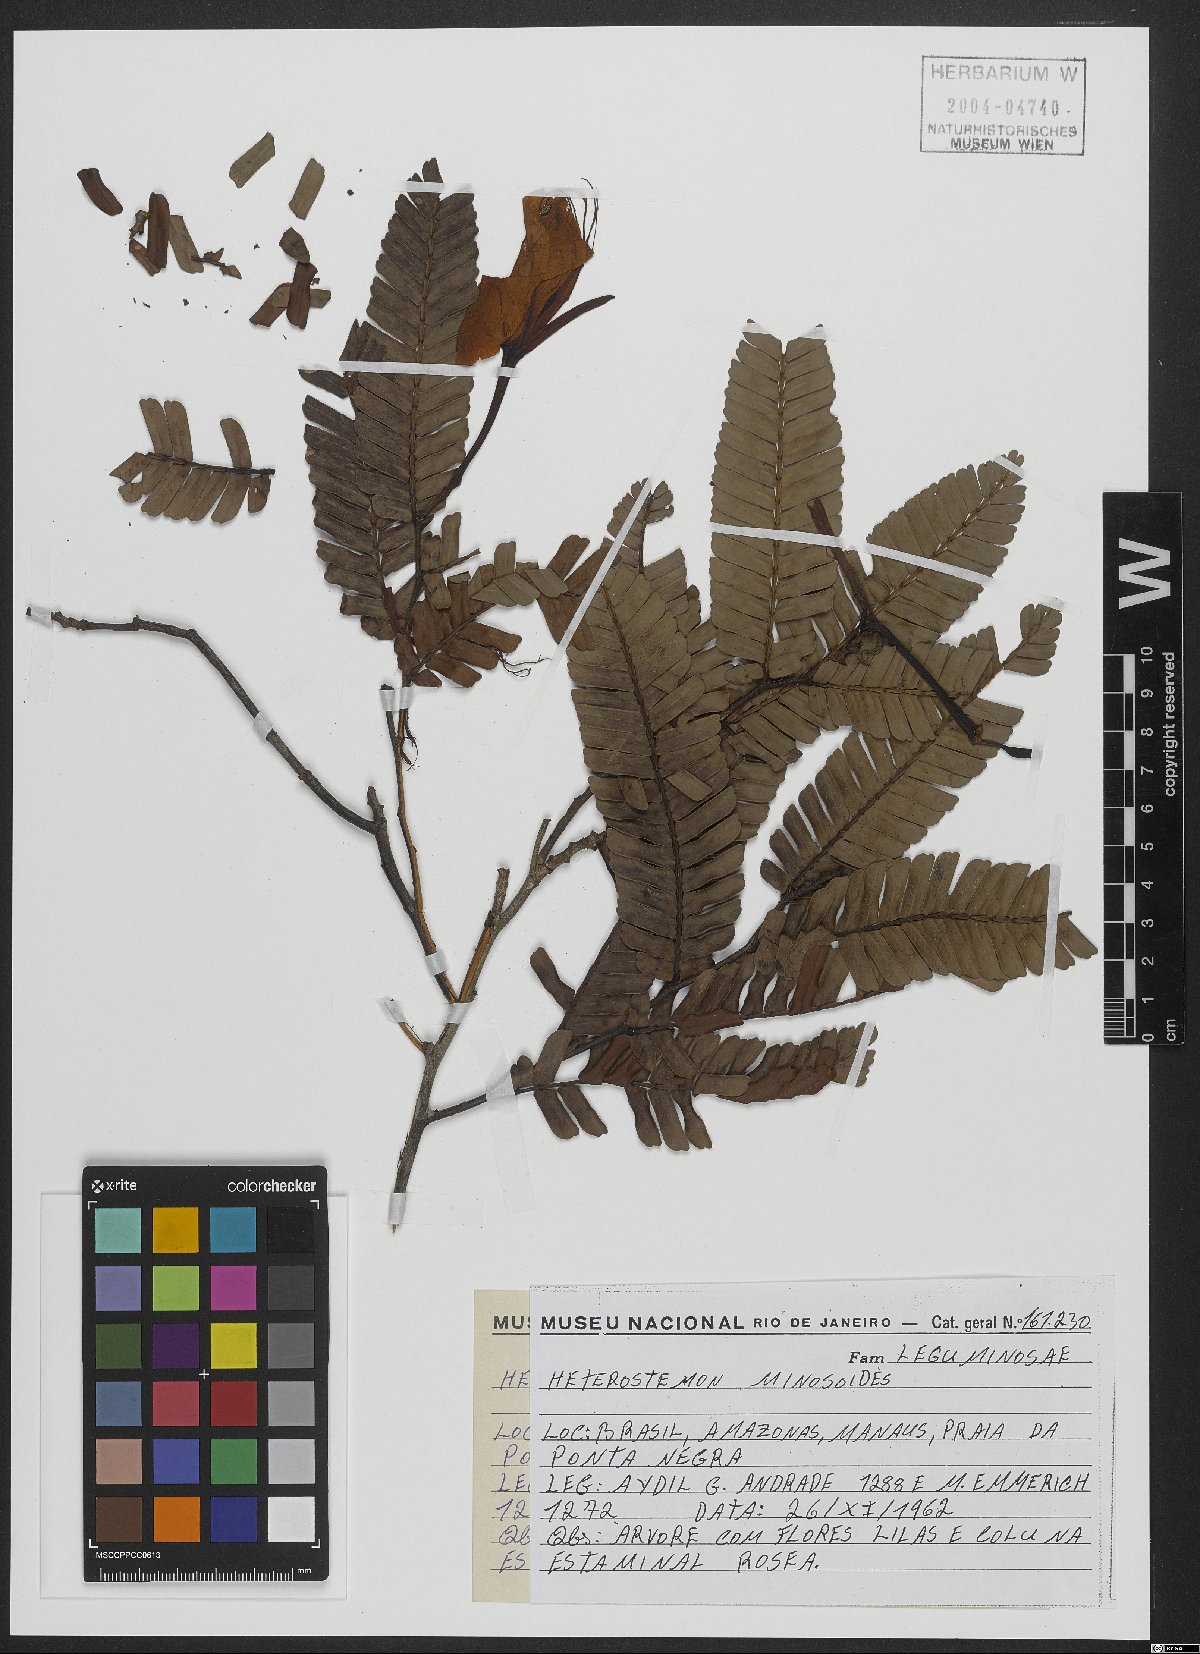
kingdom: Plantae
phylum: Tracheophyta
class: Magnoliopsida
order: Fabales
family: Fabaceae
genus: Heterostemon
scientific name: Heterostemon mimosoides
